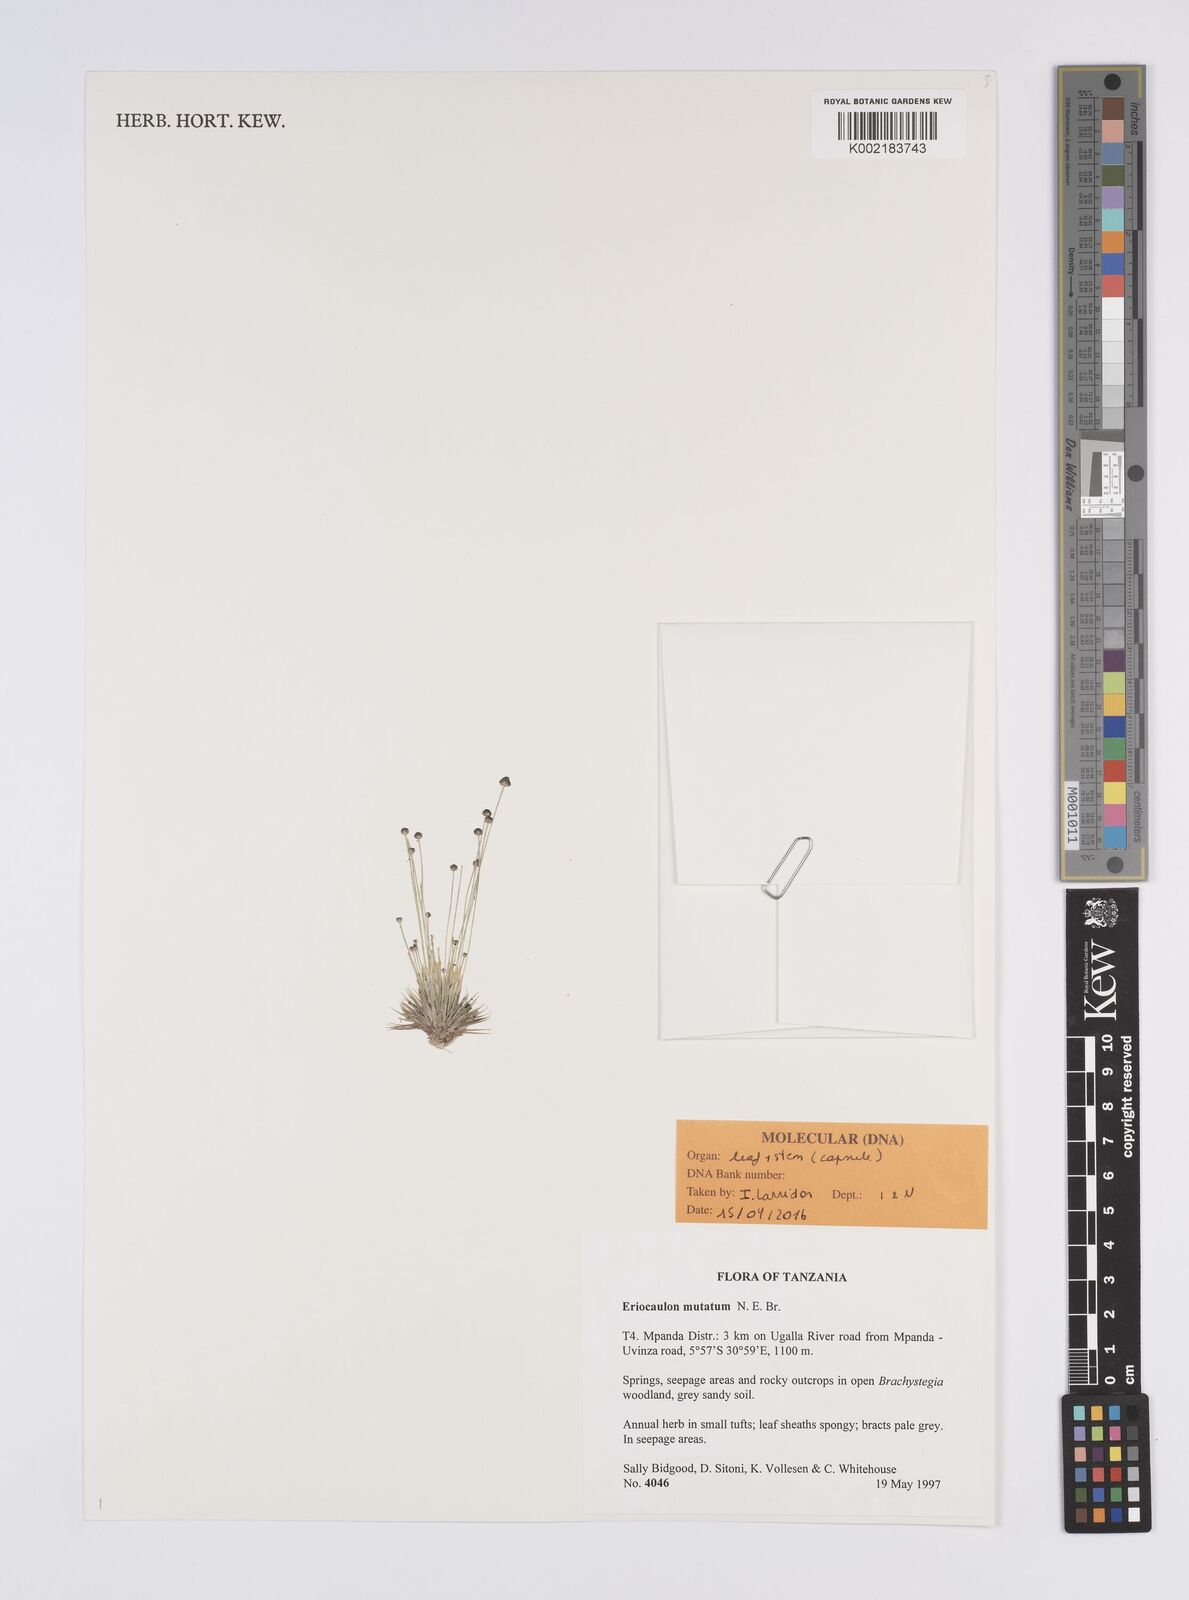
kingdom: Plantae
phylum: Tracheophyta
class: Liliopsida
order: Poales
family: Eriocaulaceae
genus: Eriocaulon
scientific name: Eriocaulon mutatum
